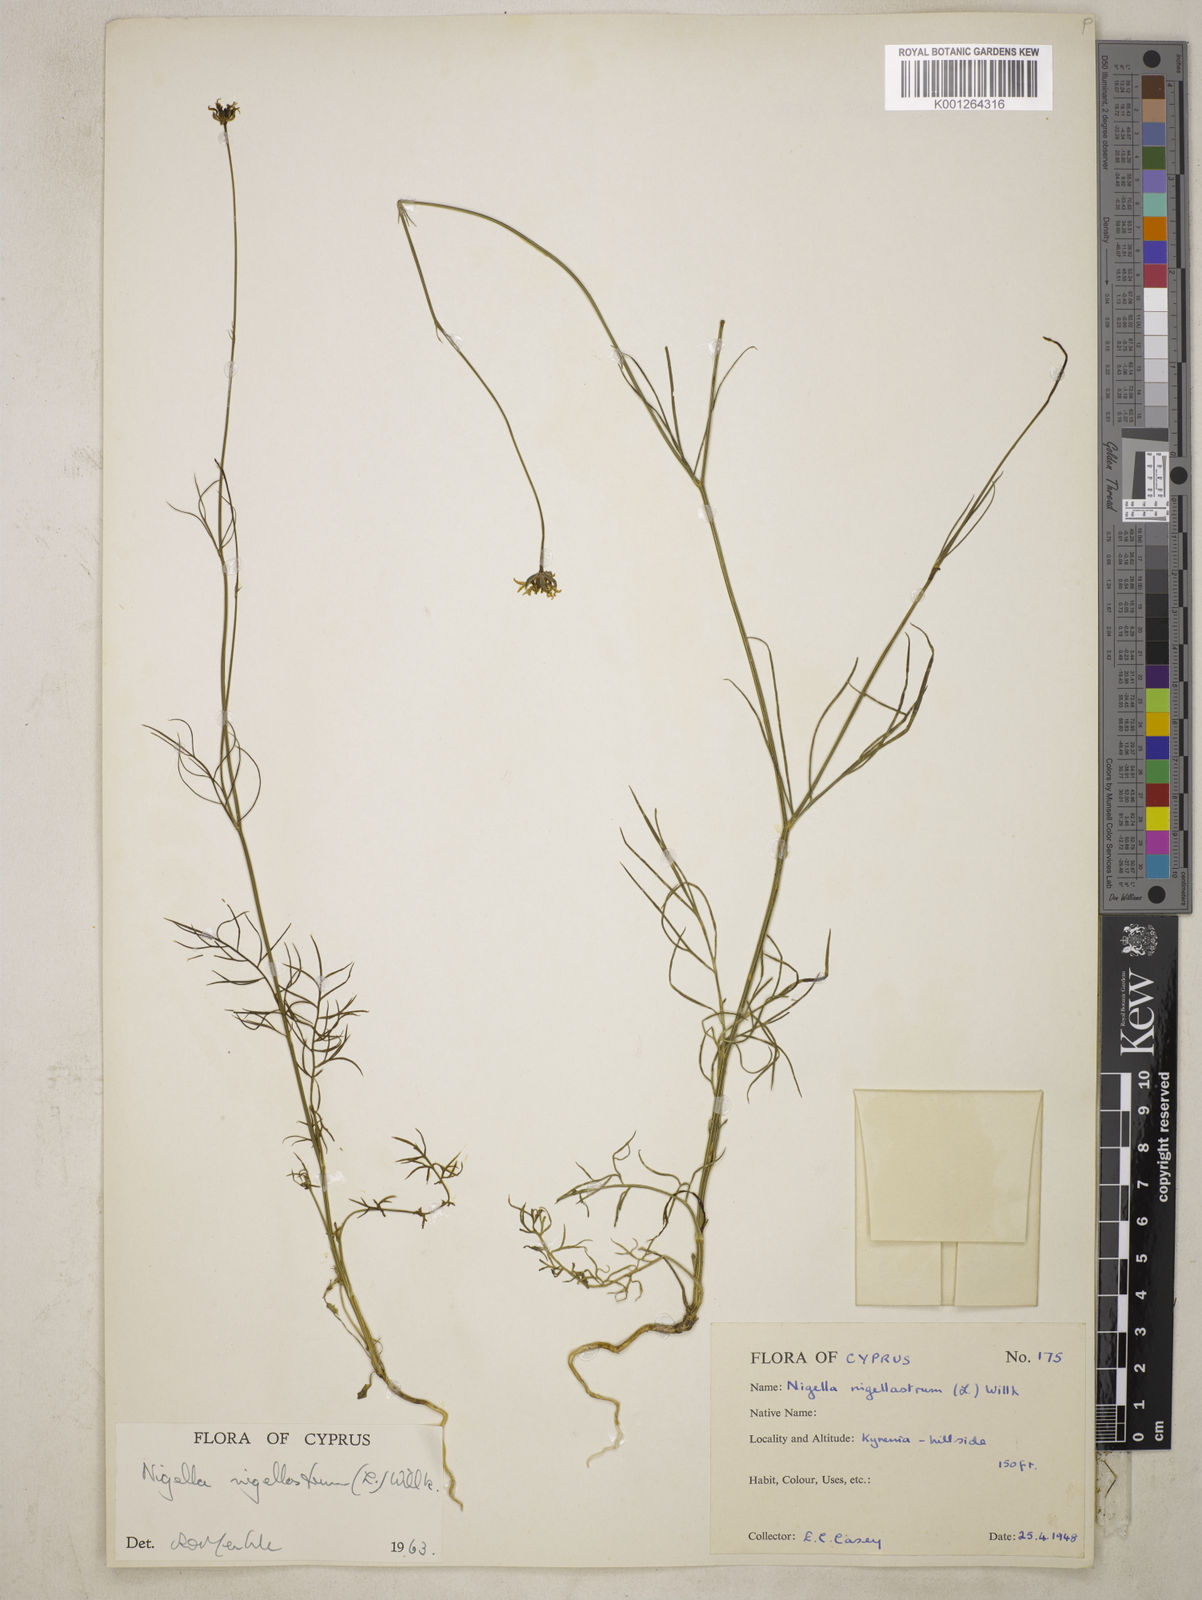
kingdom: Plantae
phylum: Tracheophyta
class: Magnoliopsida
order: Ranunculales
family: Ranunculaceae
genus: Garidella
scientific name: Garidella nigellastrum
